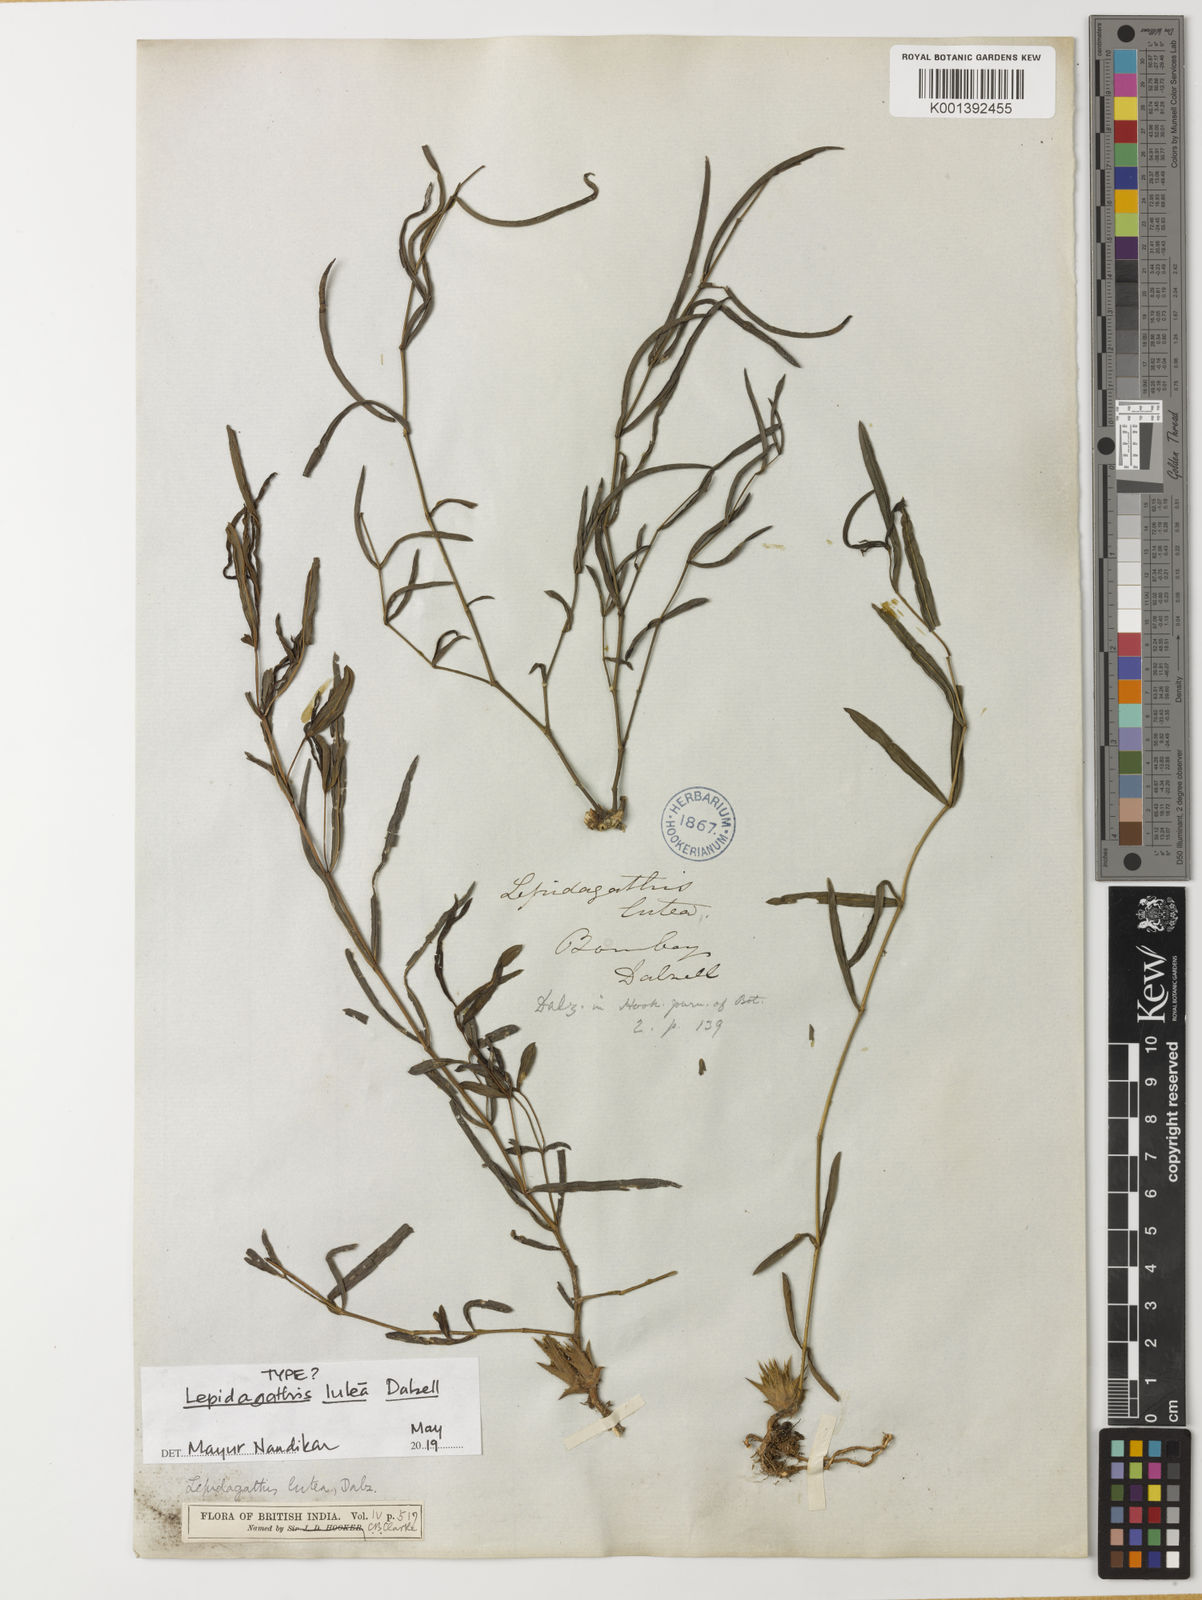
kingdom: Plantae
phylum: Tracheophyta
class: Magnoliopsida
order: Lamiales
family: Acanthaceae
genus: Lepidagathis
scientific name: Lepidagathis lutea
